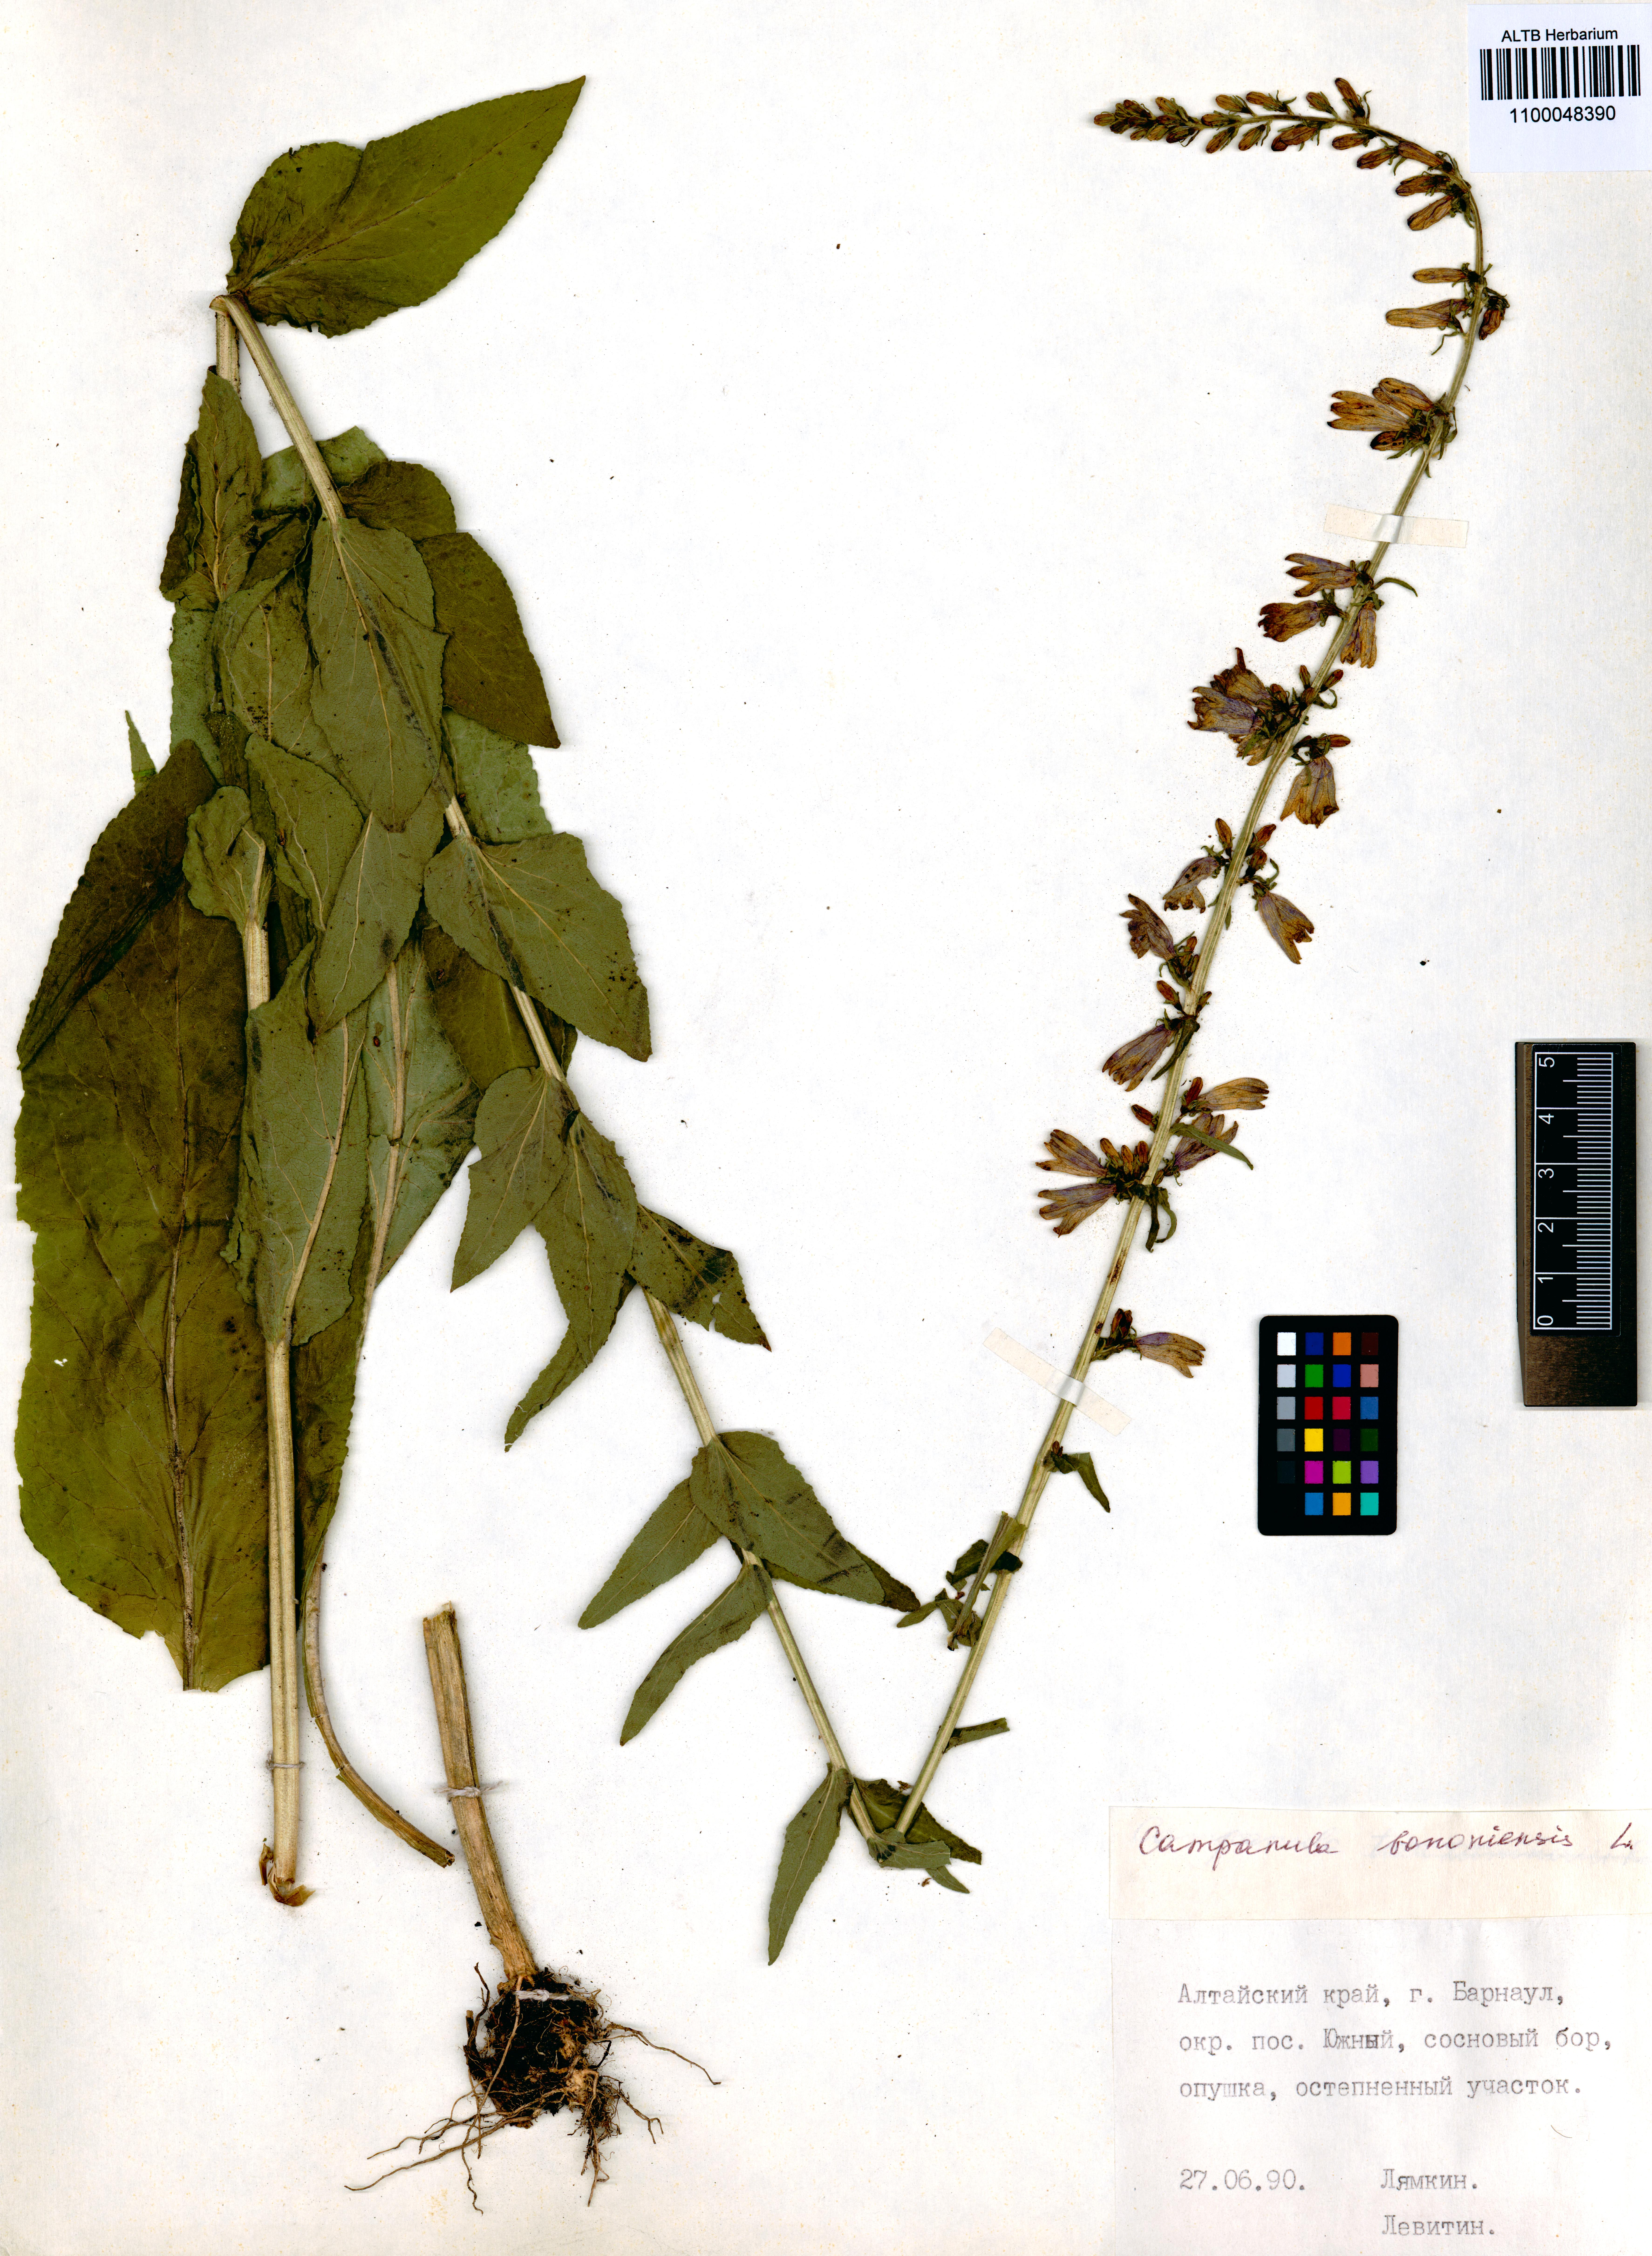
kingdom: Plantae
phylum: Tracheophyta
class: Magnoliopsida
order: Asterales
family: Campanulaceae
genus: Campanula
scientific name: Campanula bononiensis
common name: Pale bellflower
